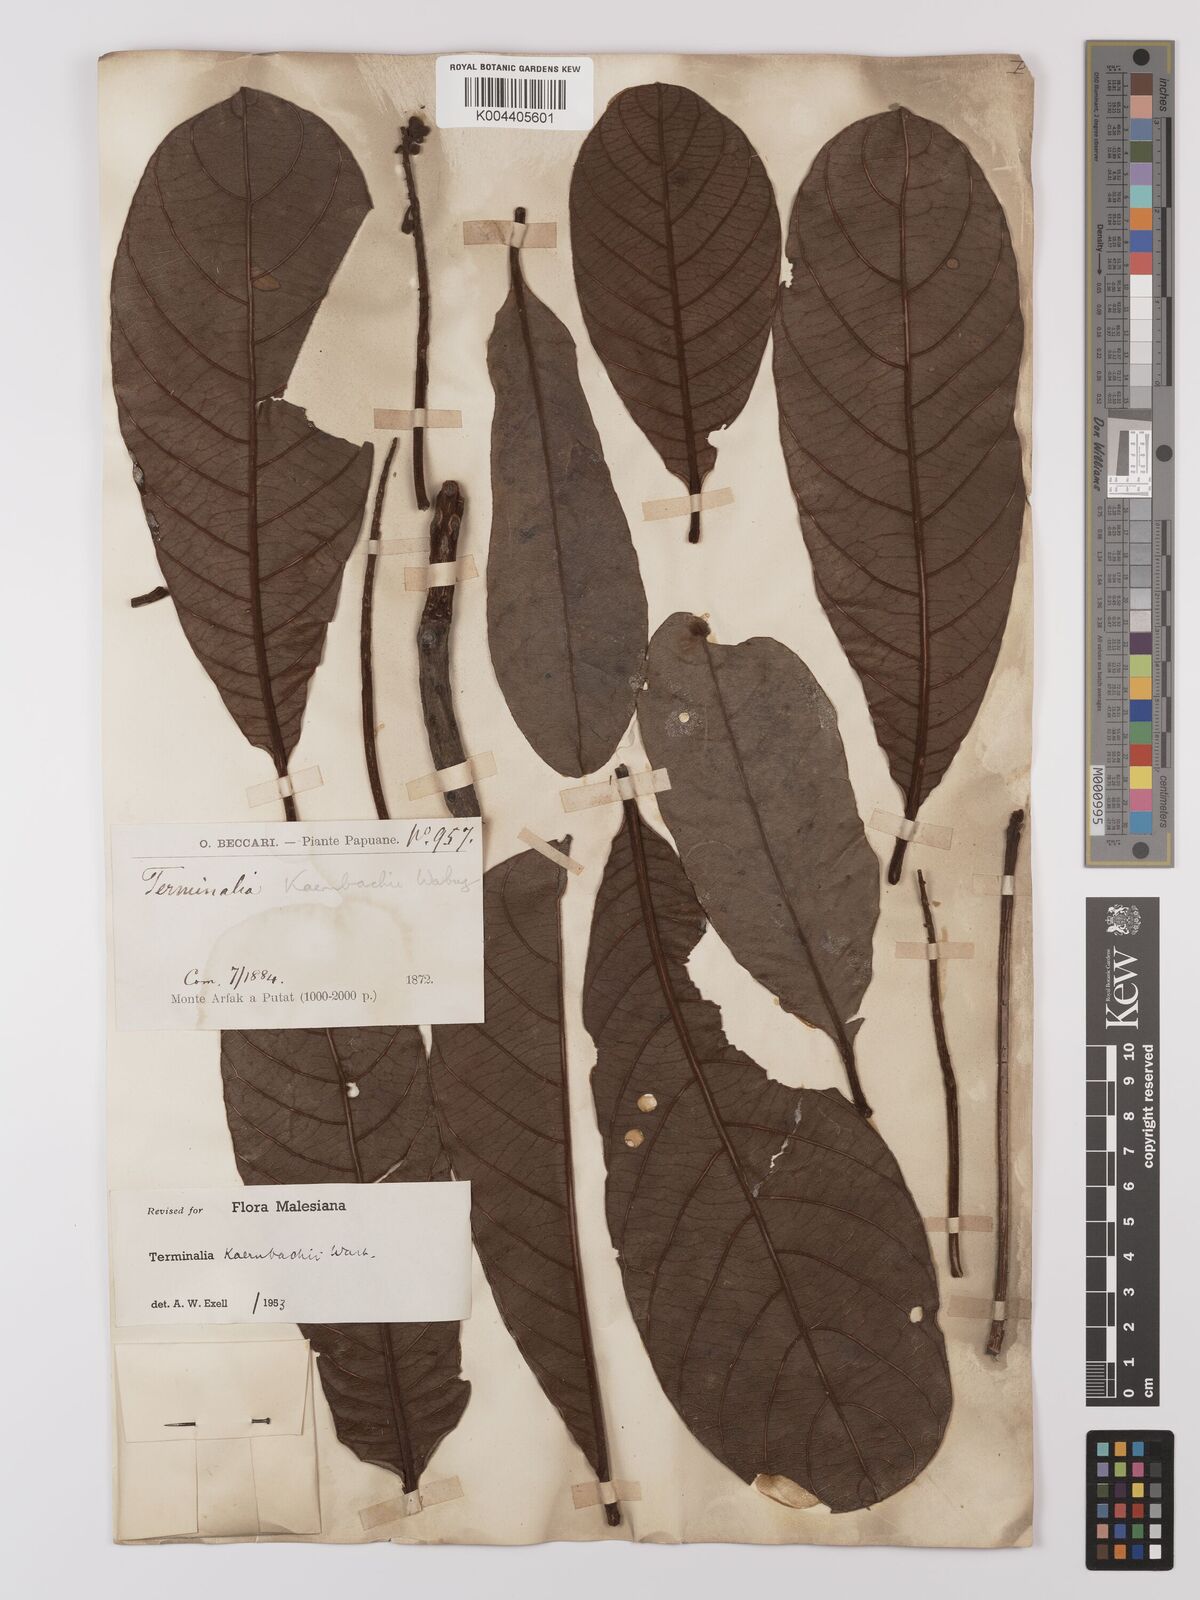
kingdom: Plantae
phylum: Tracheophyta
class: Magnoliopsida
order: Myrtales
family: Combretaceae
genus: Terminalia
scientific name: Terminalia kaernbachii
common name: Okari-nut
